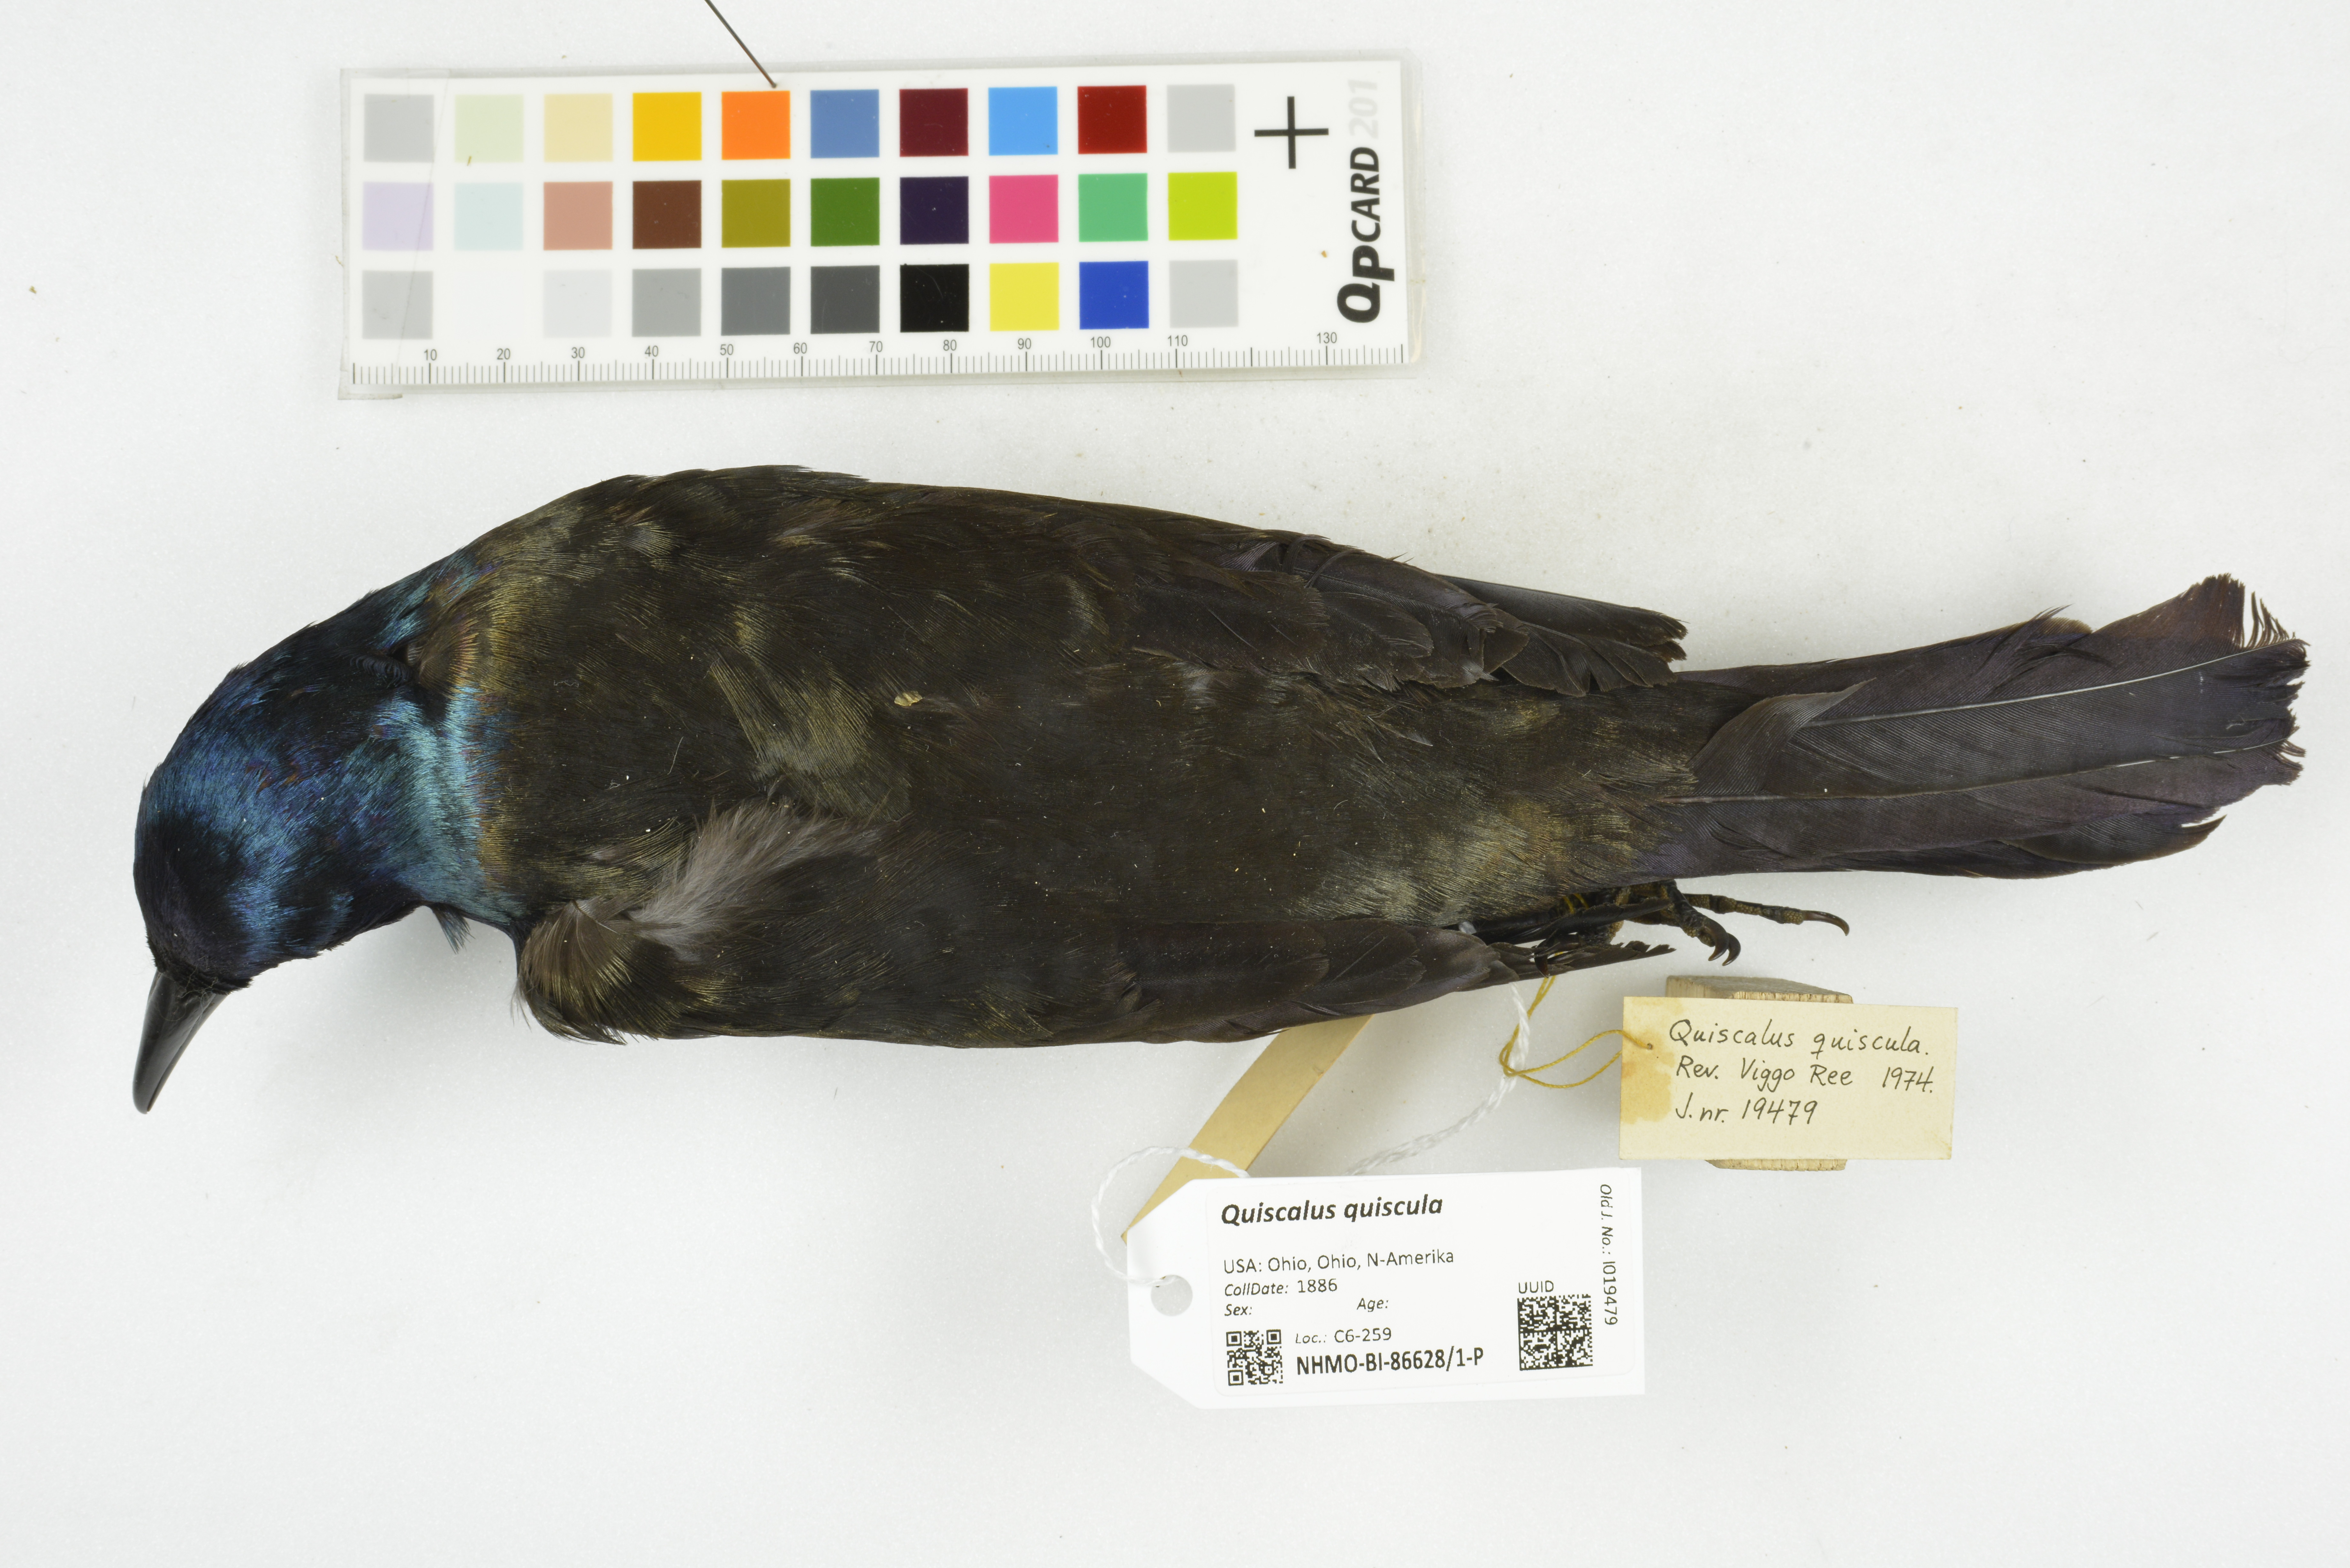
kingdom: Animalia
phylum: Chordata
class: Aves
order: Passeriformes
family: Icteridae
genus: Quiscalus
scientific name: Quiscalus quiscula
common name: Common grackle
